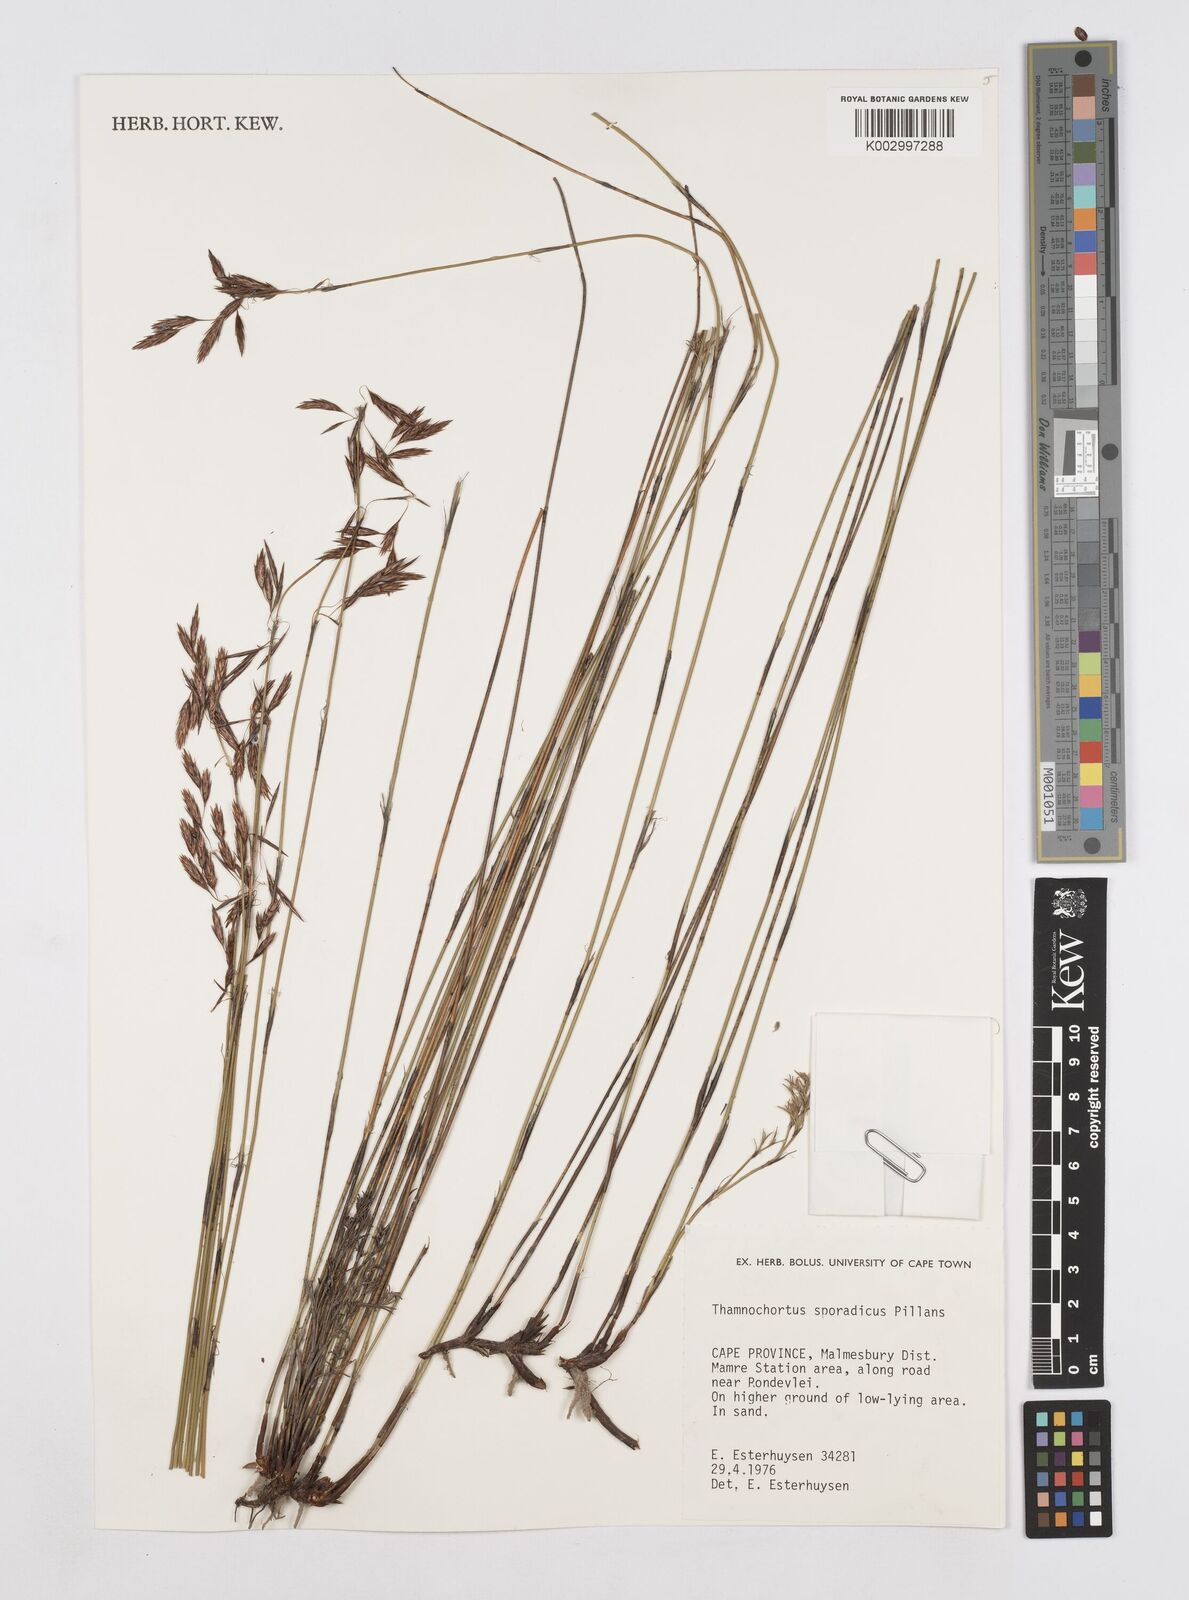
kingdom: Plantae
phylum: Tracheophyta
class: Liliopsida
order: Poales
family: Restionaceae
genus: Thamnochortus
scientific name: Thamnochortus sporadicus
